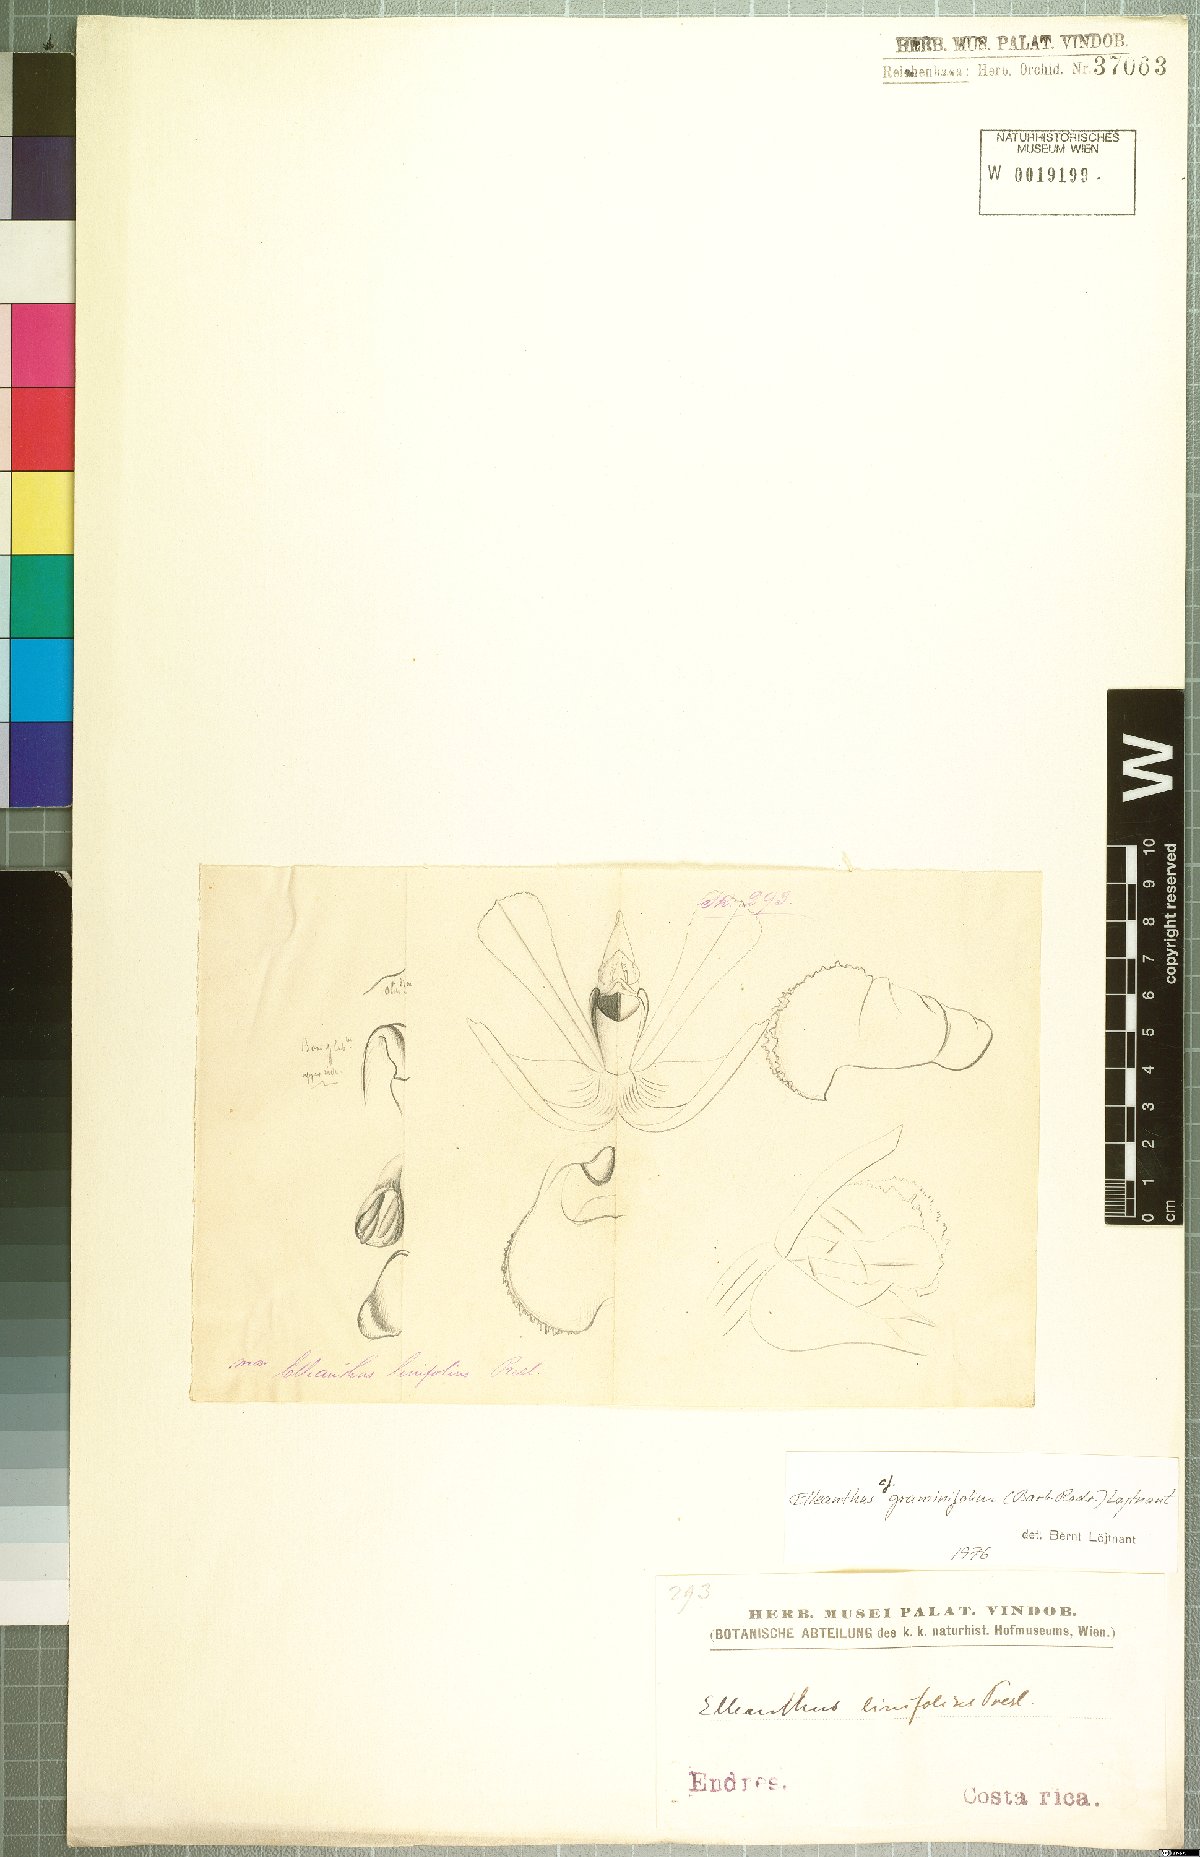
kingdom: Plantae
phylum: Tracheophyta
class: Liliopsida
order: Asparagales
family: Orchidaceae
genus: Elleanthus
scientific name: Elleanthus graminifolius
